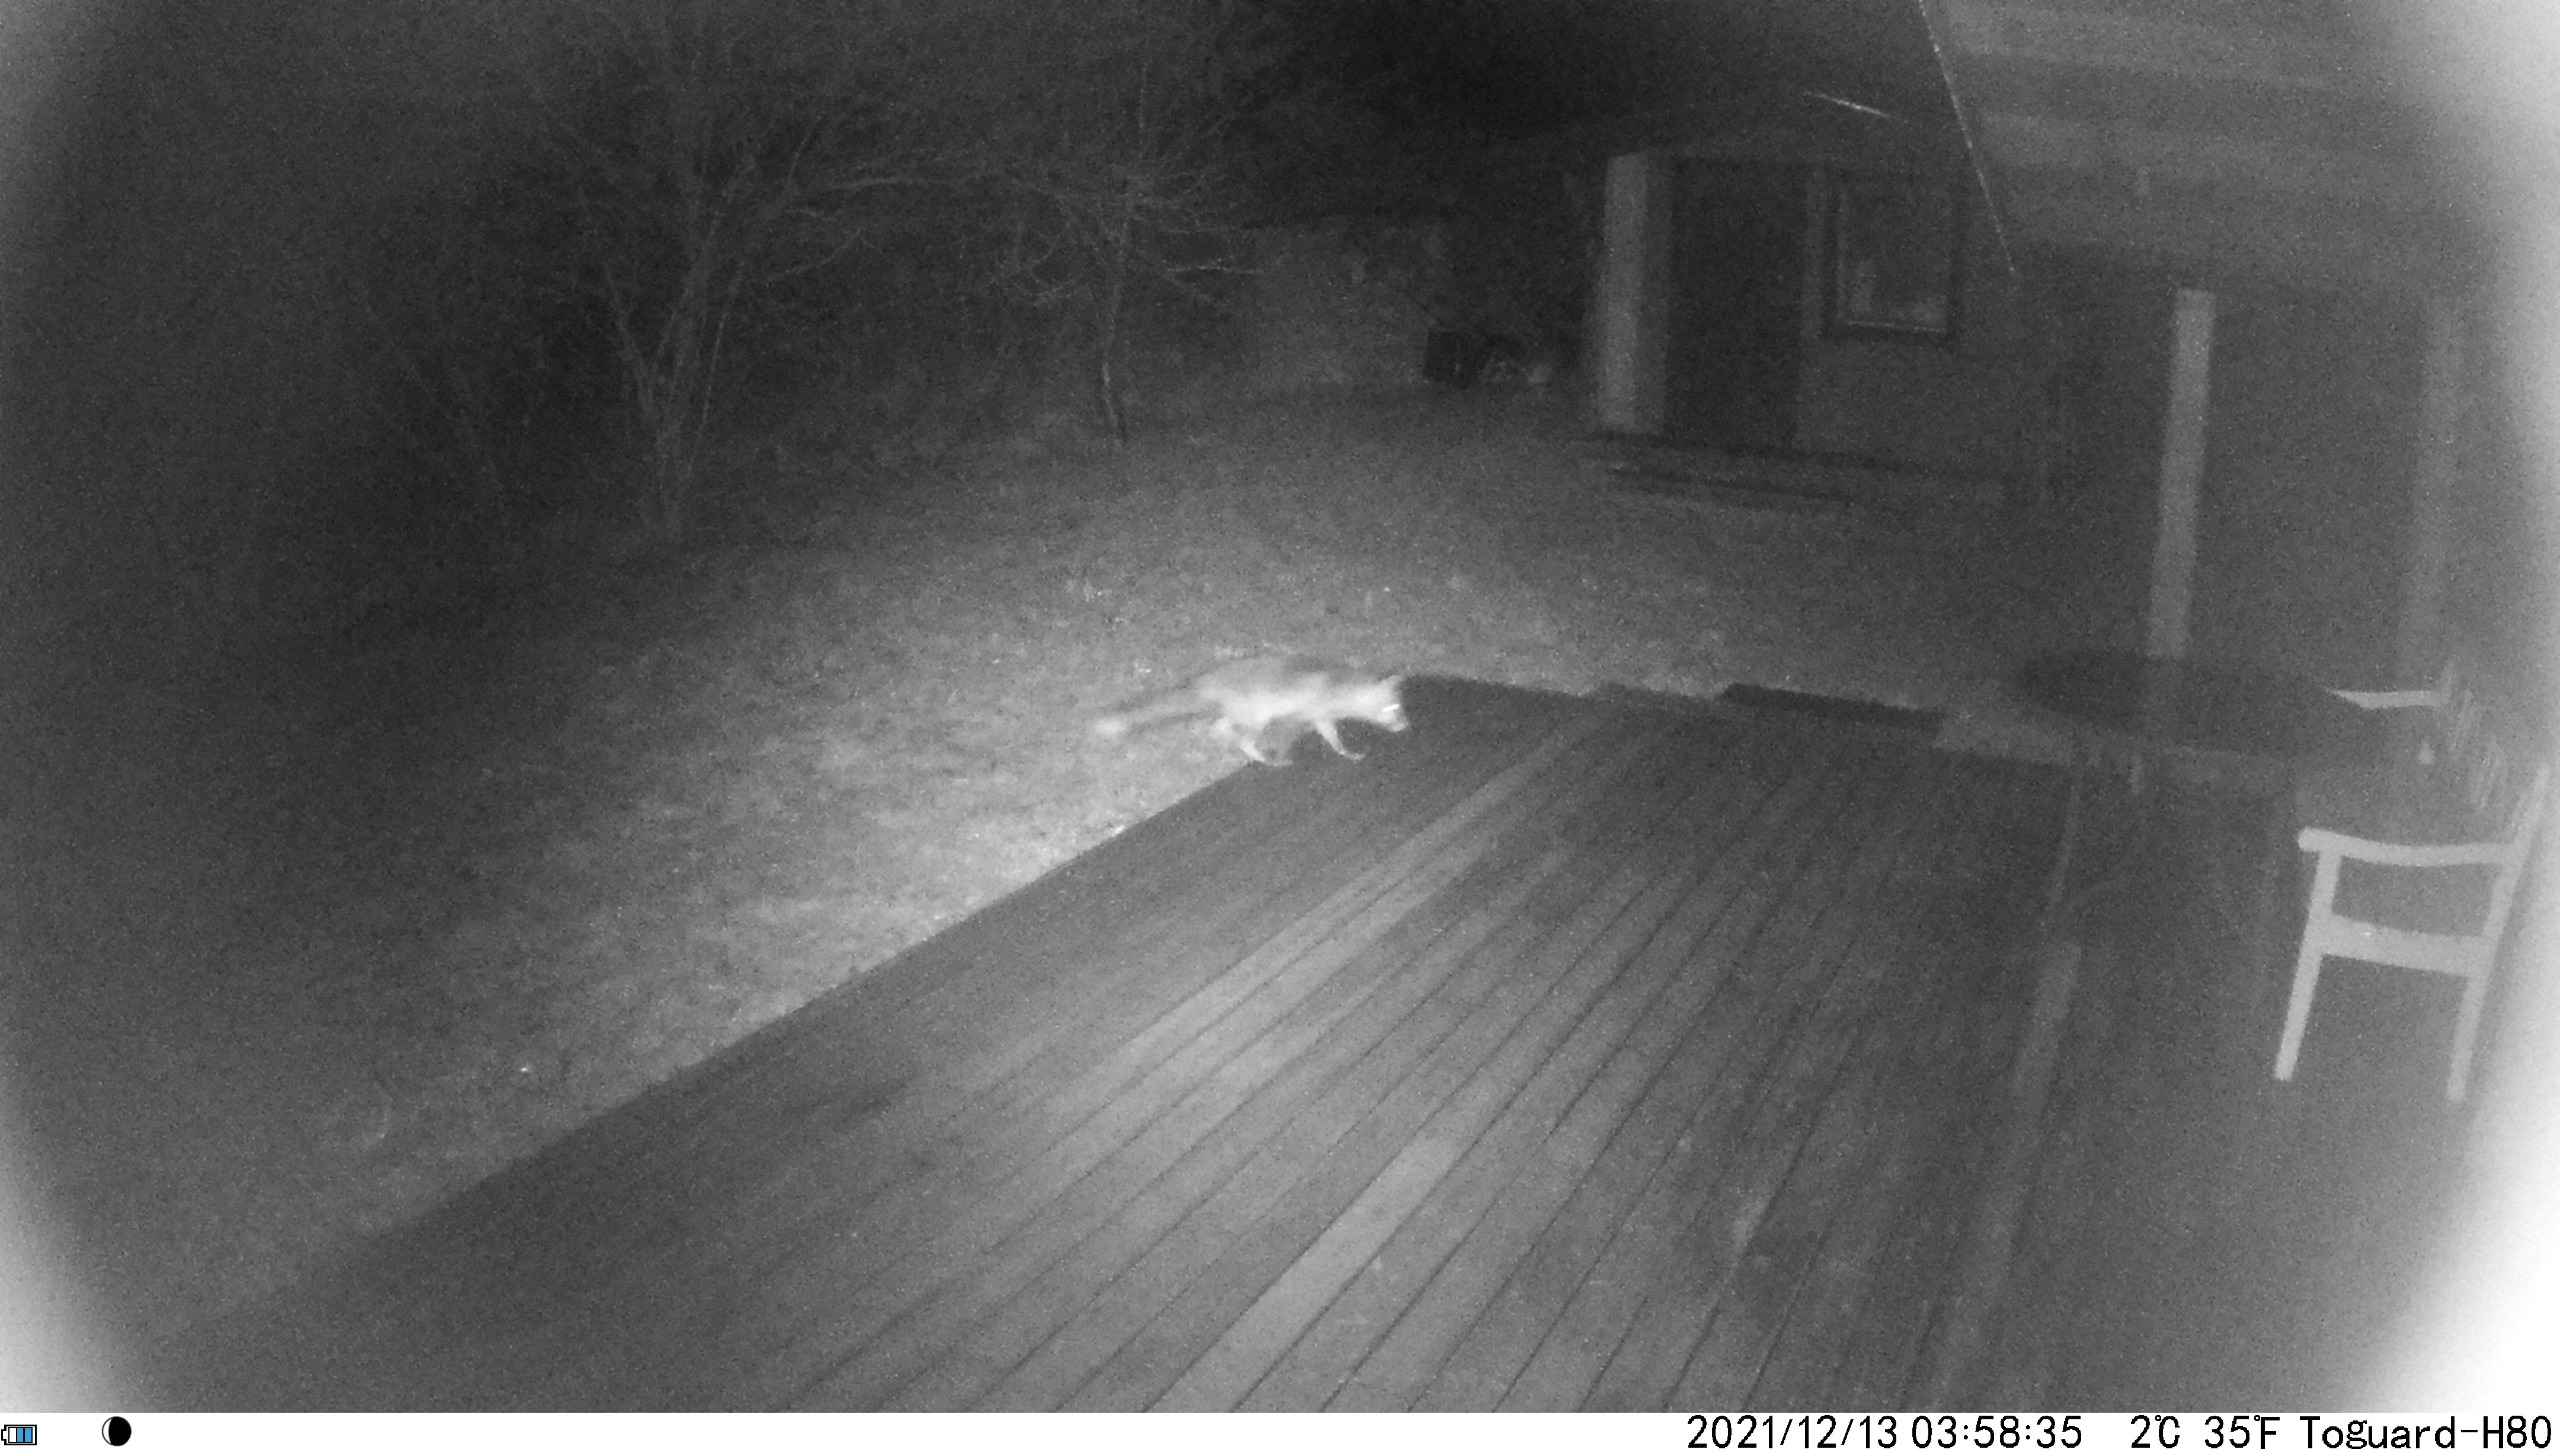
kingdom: Animalia
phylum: Chordata
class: Mammalia
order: Carnivora
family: Canidae
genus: Vulpes
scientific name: Vulpes vulpes
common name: Ræv
